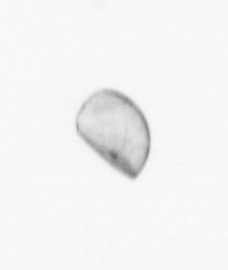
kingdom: Chromista
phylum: Ochrophyta
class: Bacillariophyceae
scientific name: Bacillariophyceae
